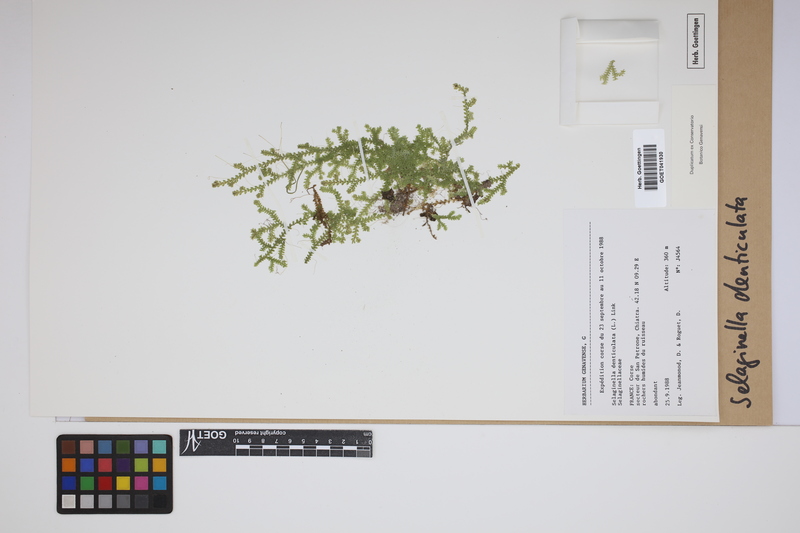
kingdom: Plantae
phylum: Tracheophyta
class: Lycopodiopsida
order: Selaginellales
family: Selaginellaceae
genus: Selaginella
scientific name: Selaginella denticulata
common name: Toothed-leaved clubmoss
